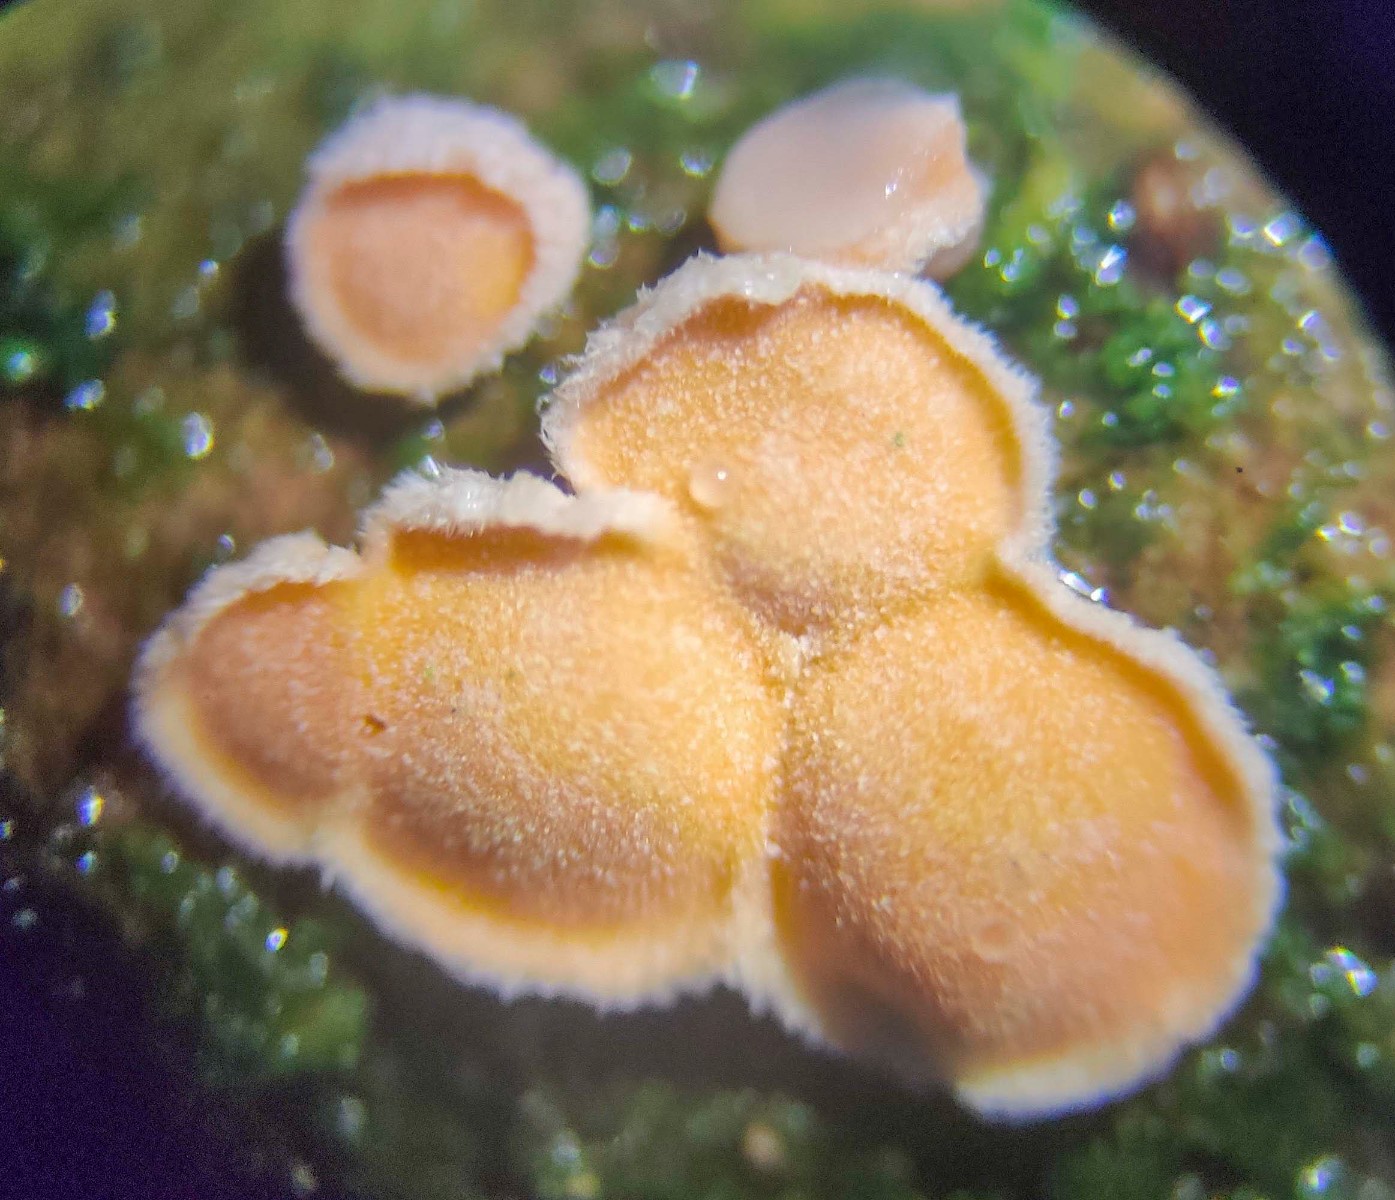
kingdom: Fungi
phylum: Basidiomycota
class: Agaricomycetes
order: Russulales
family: Stereaceae
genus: Aleurodiscus
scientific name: Aleurodiscus amorphus
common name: orange skiveskorpe
